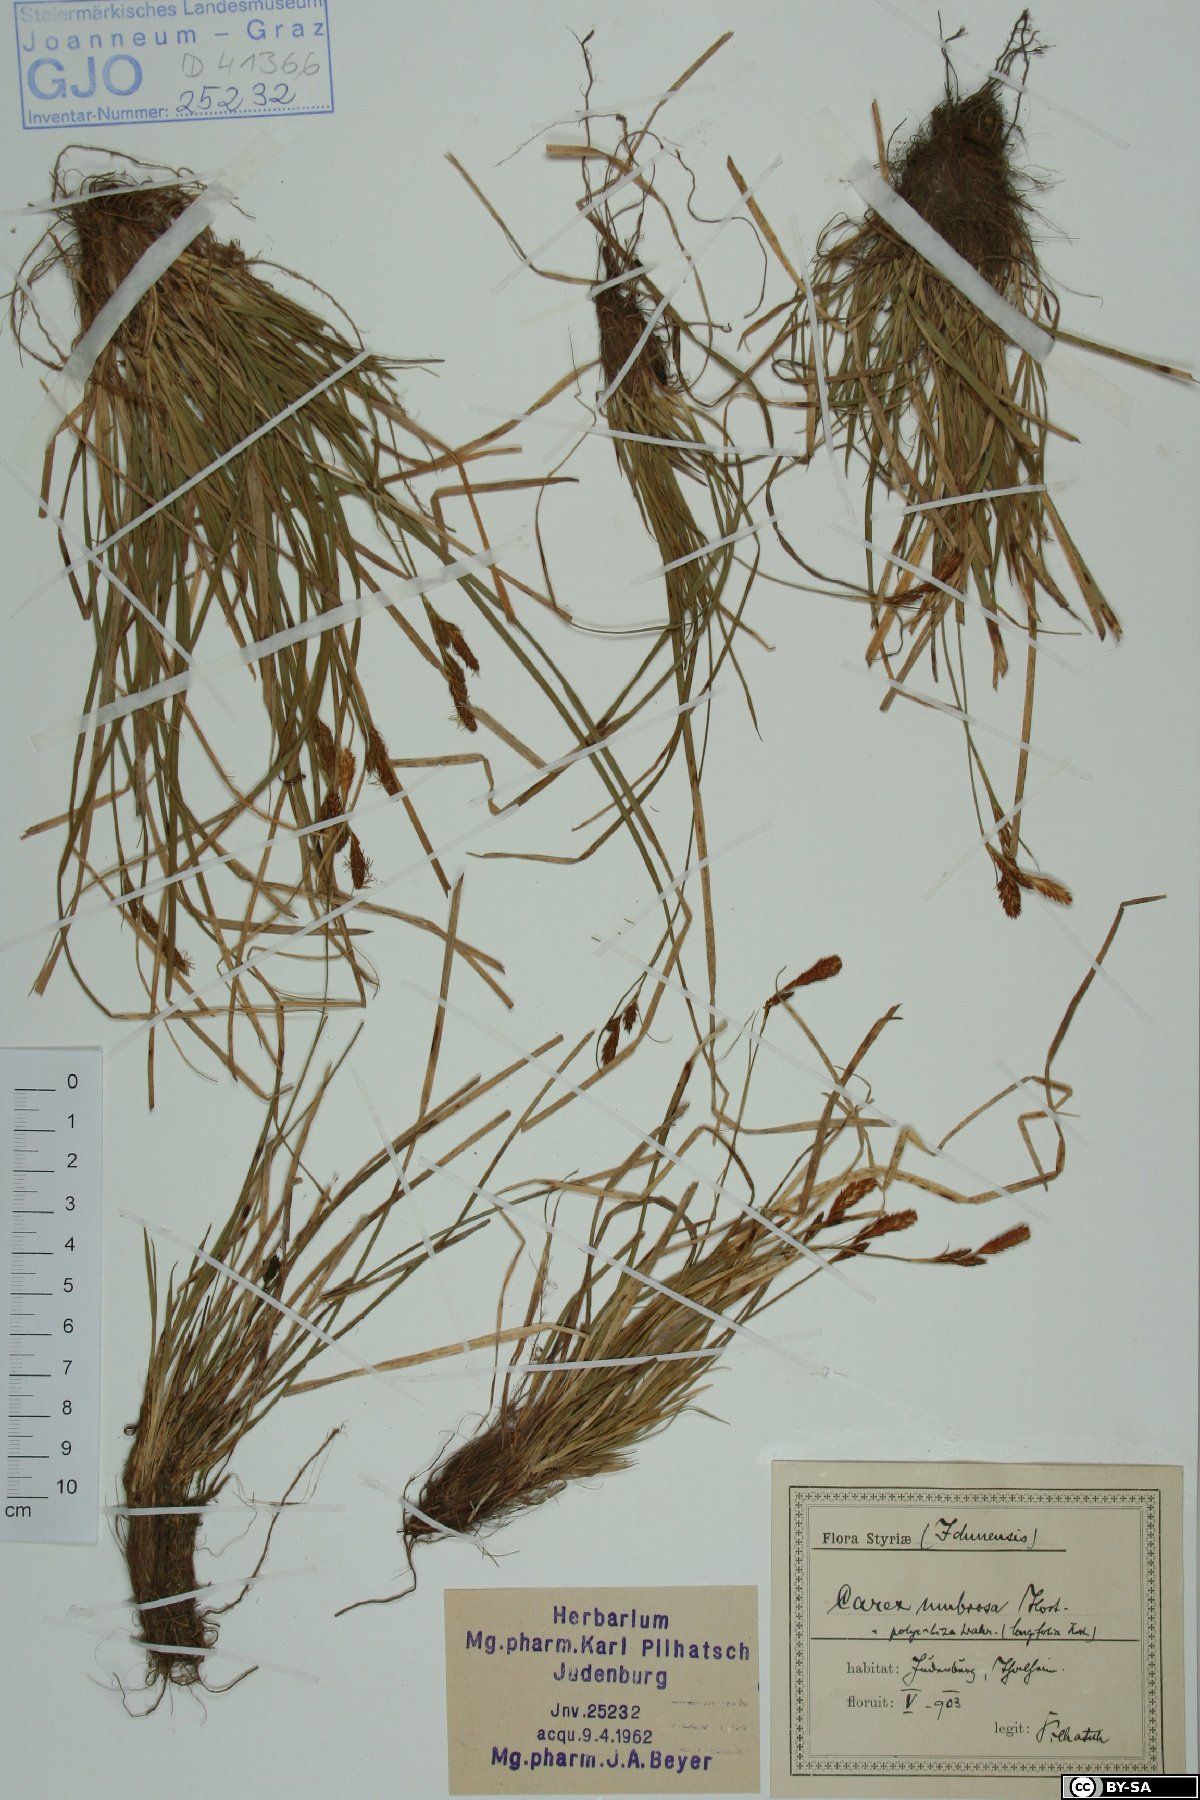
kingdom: Plantae
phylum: Tracheophyta
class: Liliopsida
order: Poales
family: Cyperaceae
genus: Carex
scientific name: Carex umbrosa
